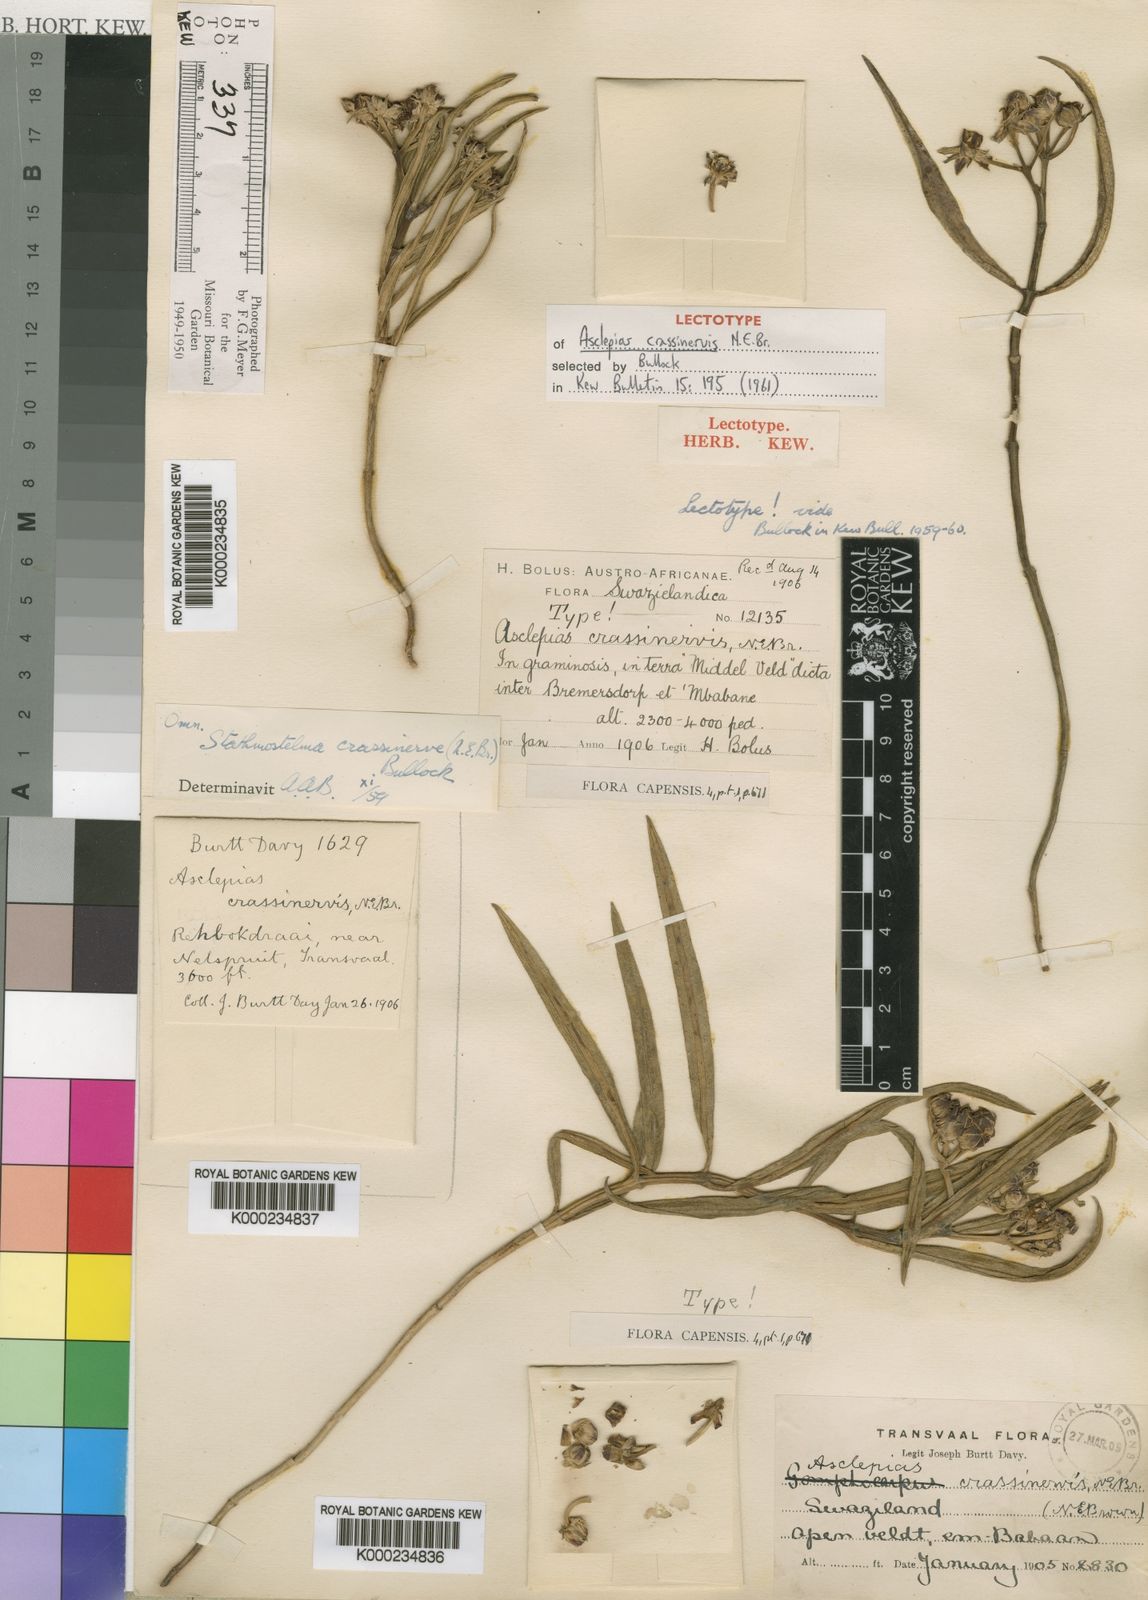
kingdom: Plantae
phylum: Tracheophyta
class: Magnoliopsida
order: Gentianales
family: Apocynaceae
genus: Asclepias
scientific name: Asclepias crassinervis
